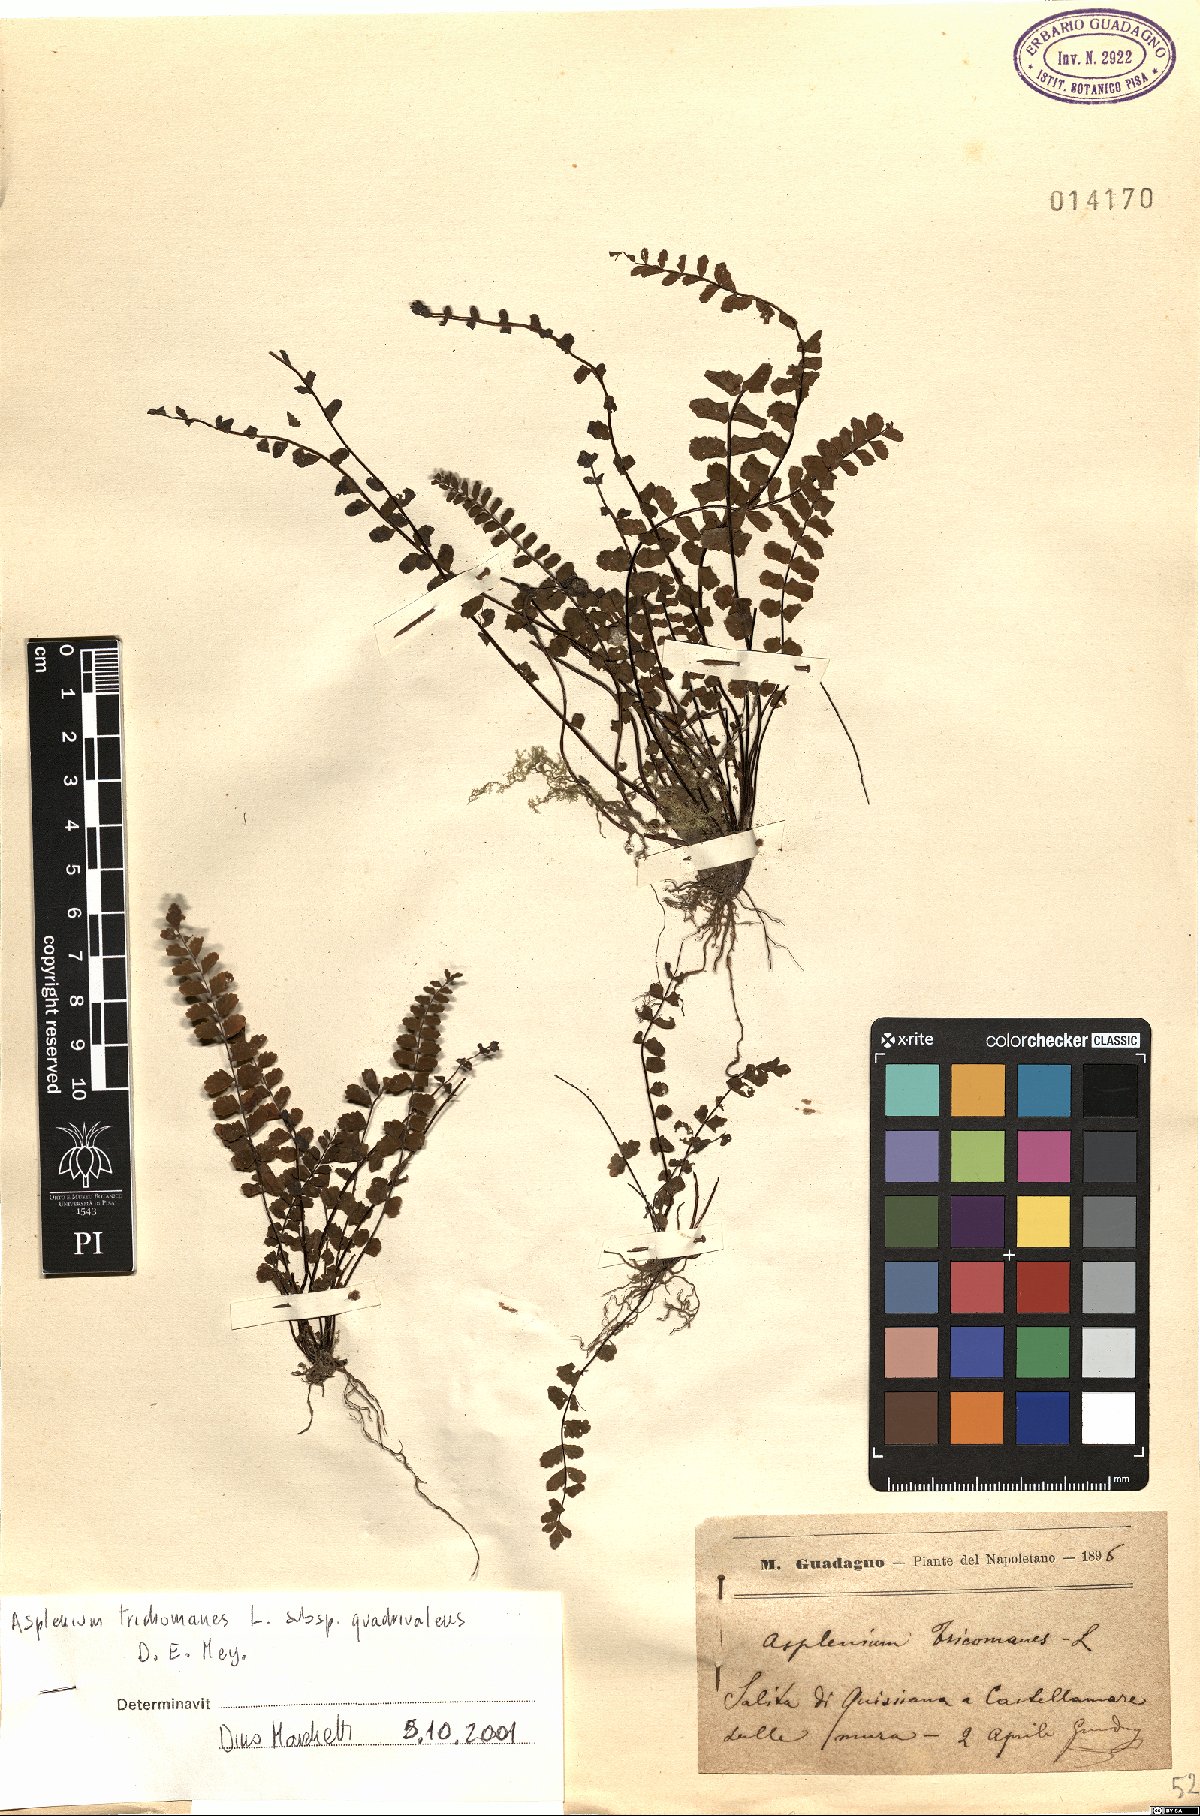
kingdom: Plantae
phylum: Tracheophyta
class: Polypodiopsida
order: Polypodiales
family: Aspleniaceae
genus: Asplenium
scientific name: Asplenium quadrivalens
